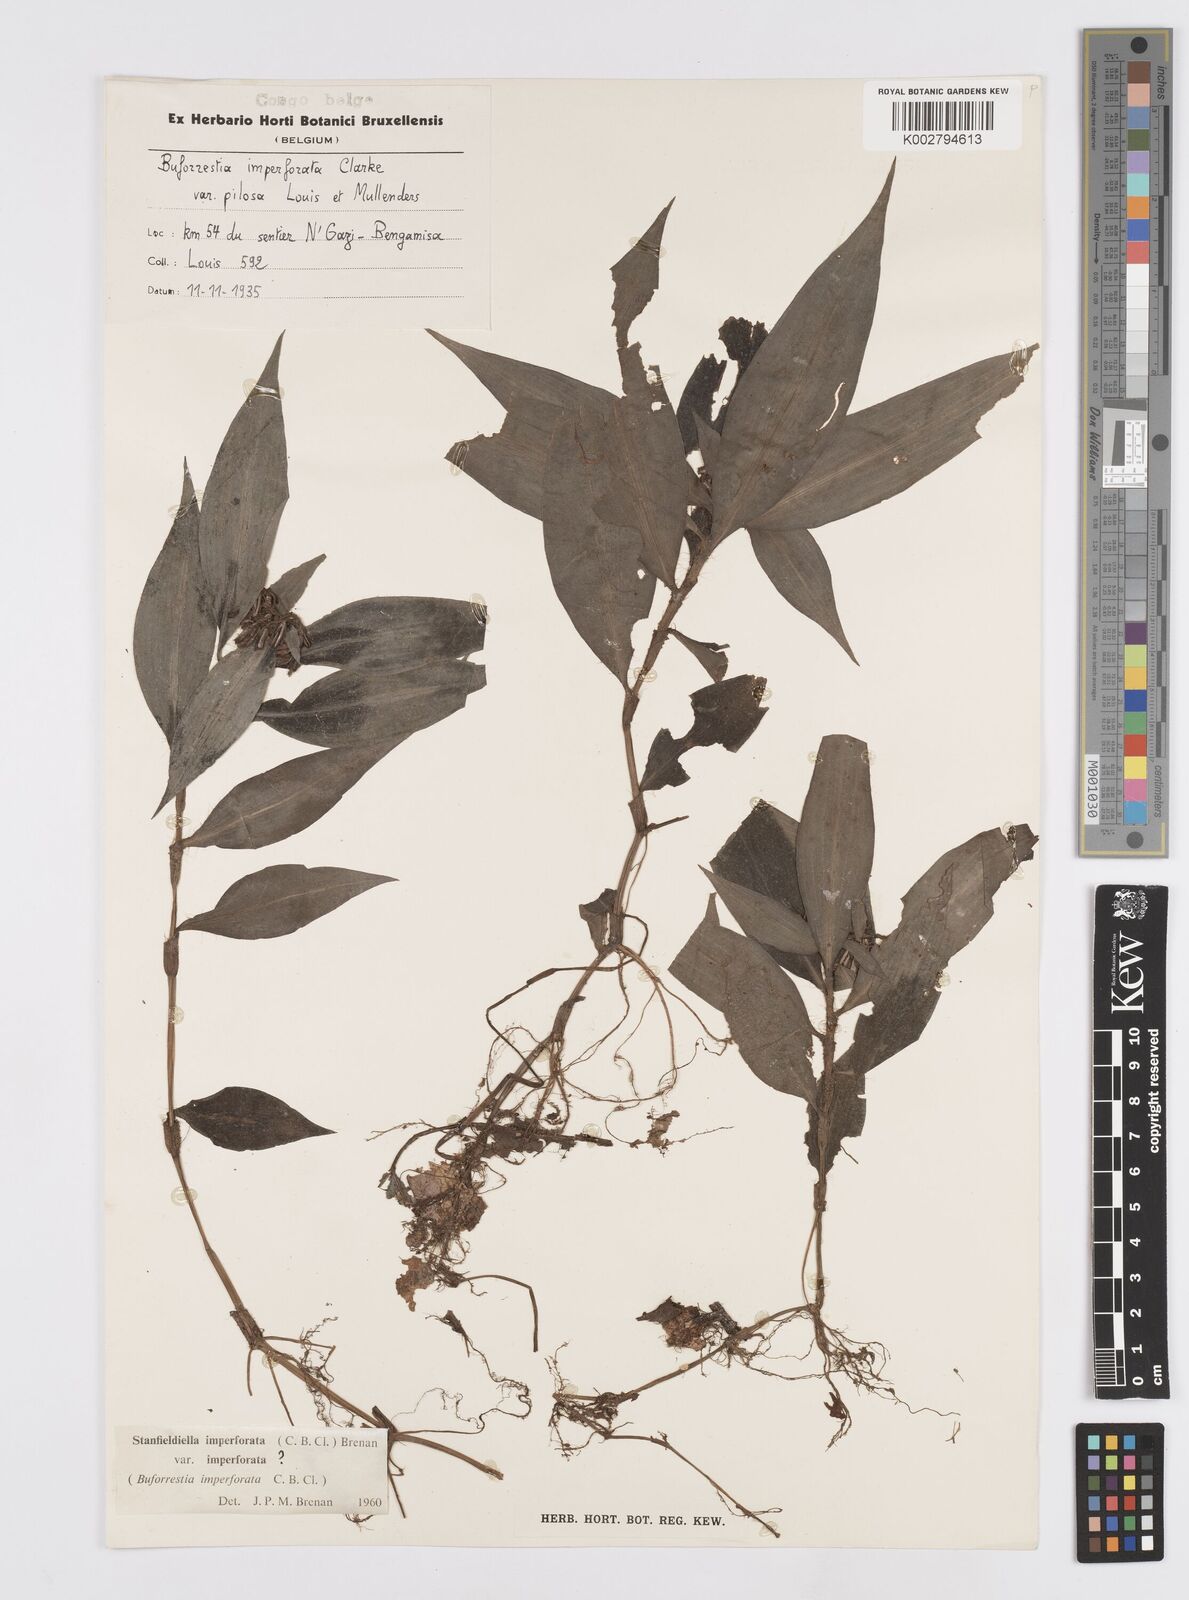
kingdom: Plantae
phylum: Tracheophyta
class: Liliopsida
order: Commelinales
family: Commelinaceae
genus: Stanfieldiella
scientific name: Stanfieldiella imperforata
